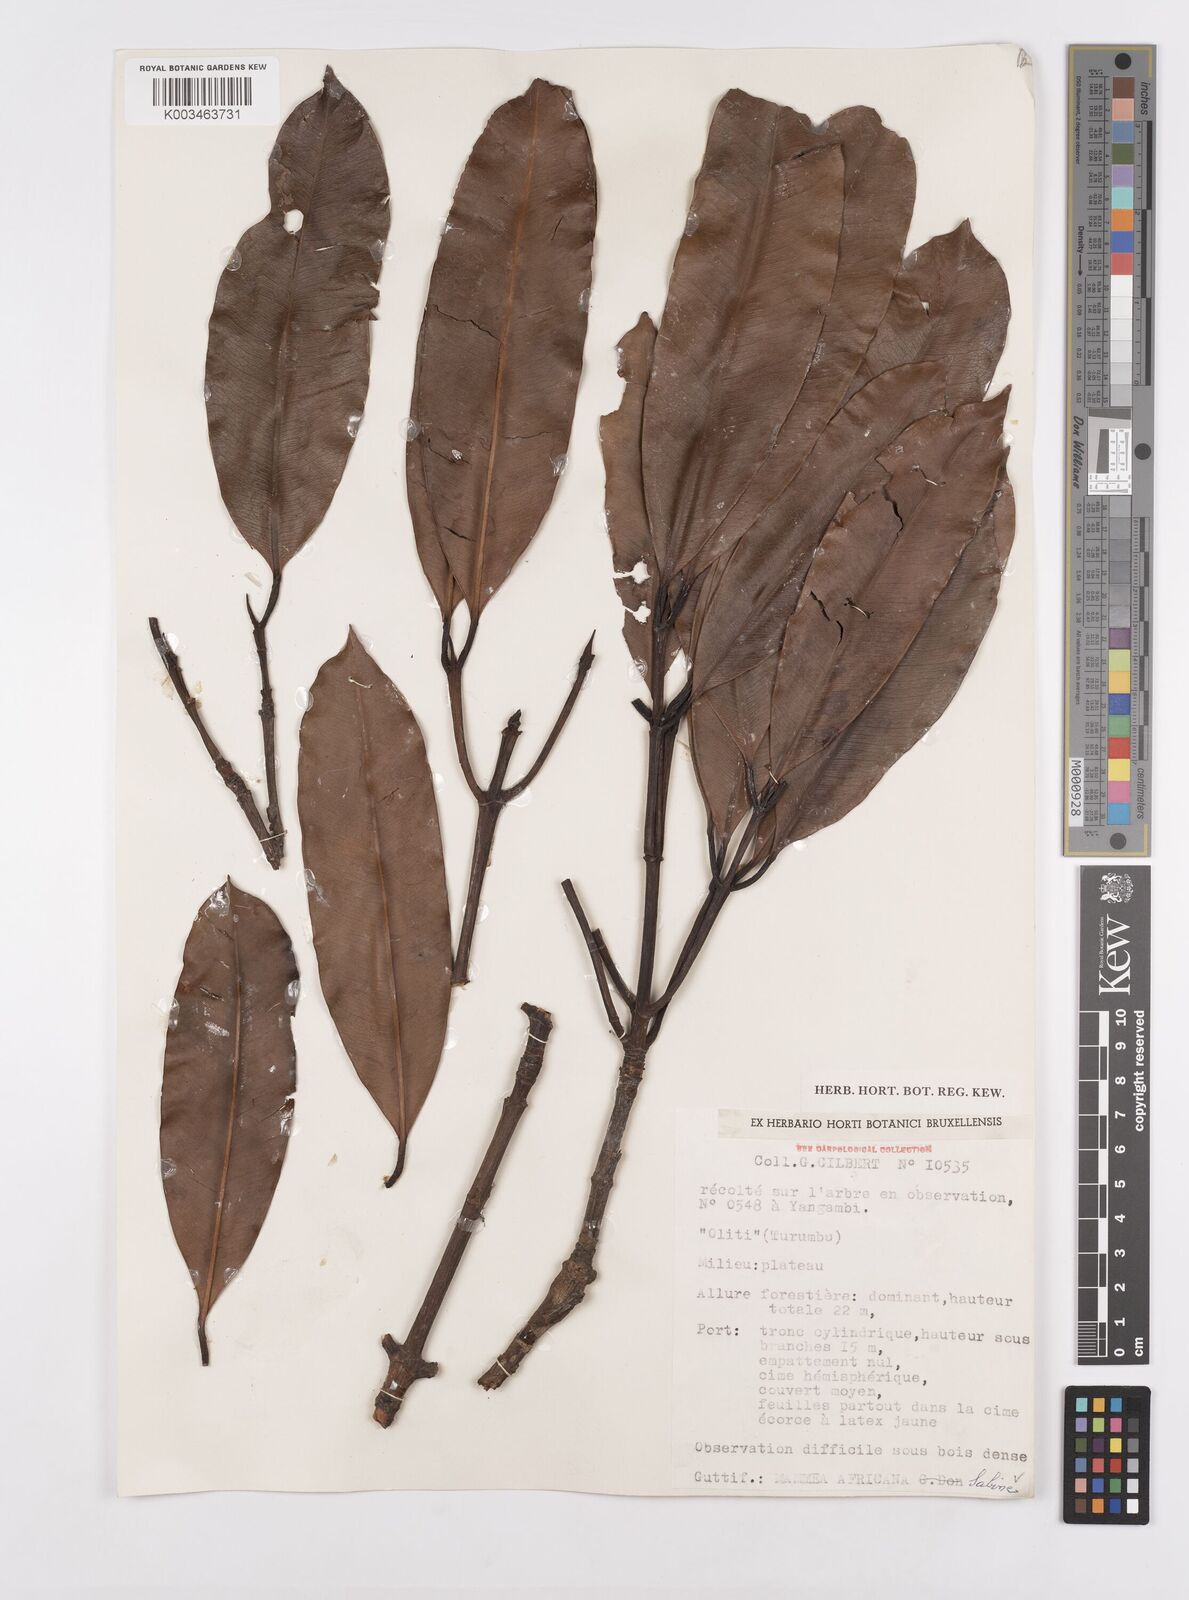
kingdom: Plantae
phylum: Tracheophyta
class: Magnoliopsida
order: Malpighiales
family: Calophyllaceae
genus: Mammea
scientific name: Mammea africana
